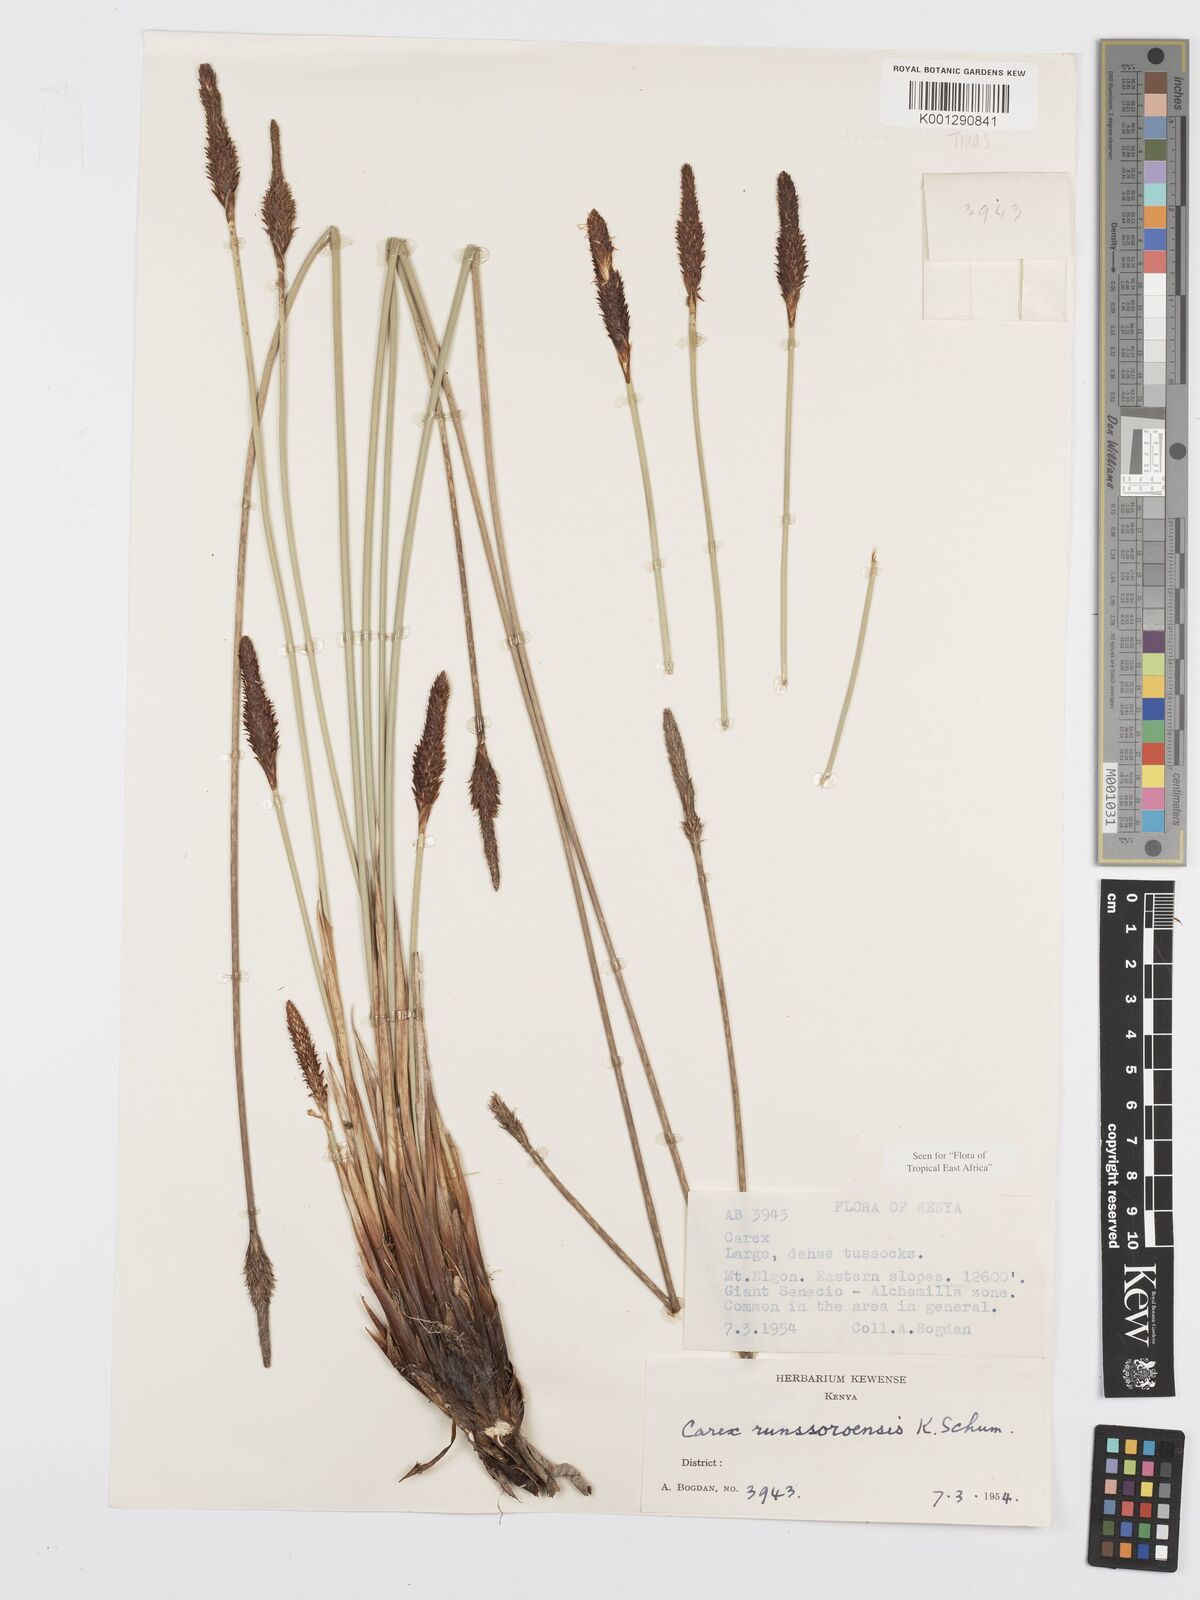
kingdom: Plantae
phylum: Tracheophyta
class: Liliopsida
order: Poales
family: Cyperaceae
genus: Carex
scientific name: Carex runssoroensis
